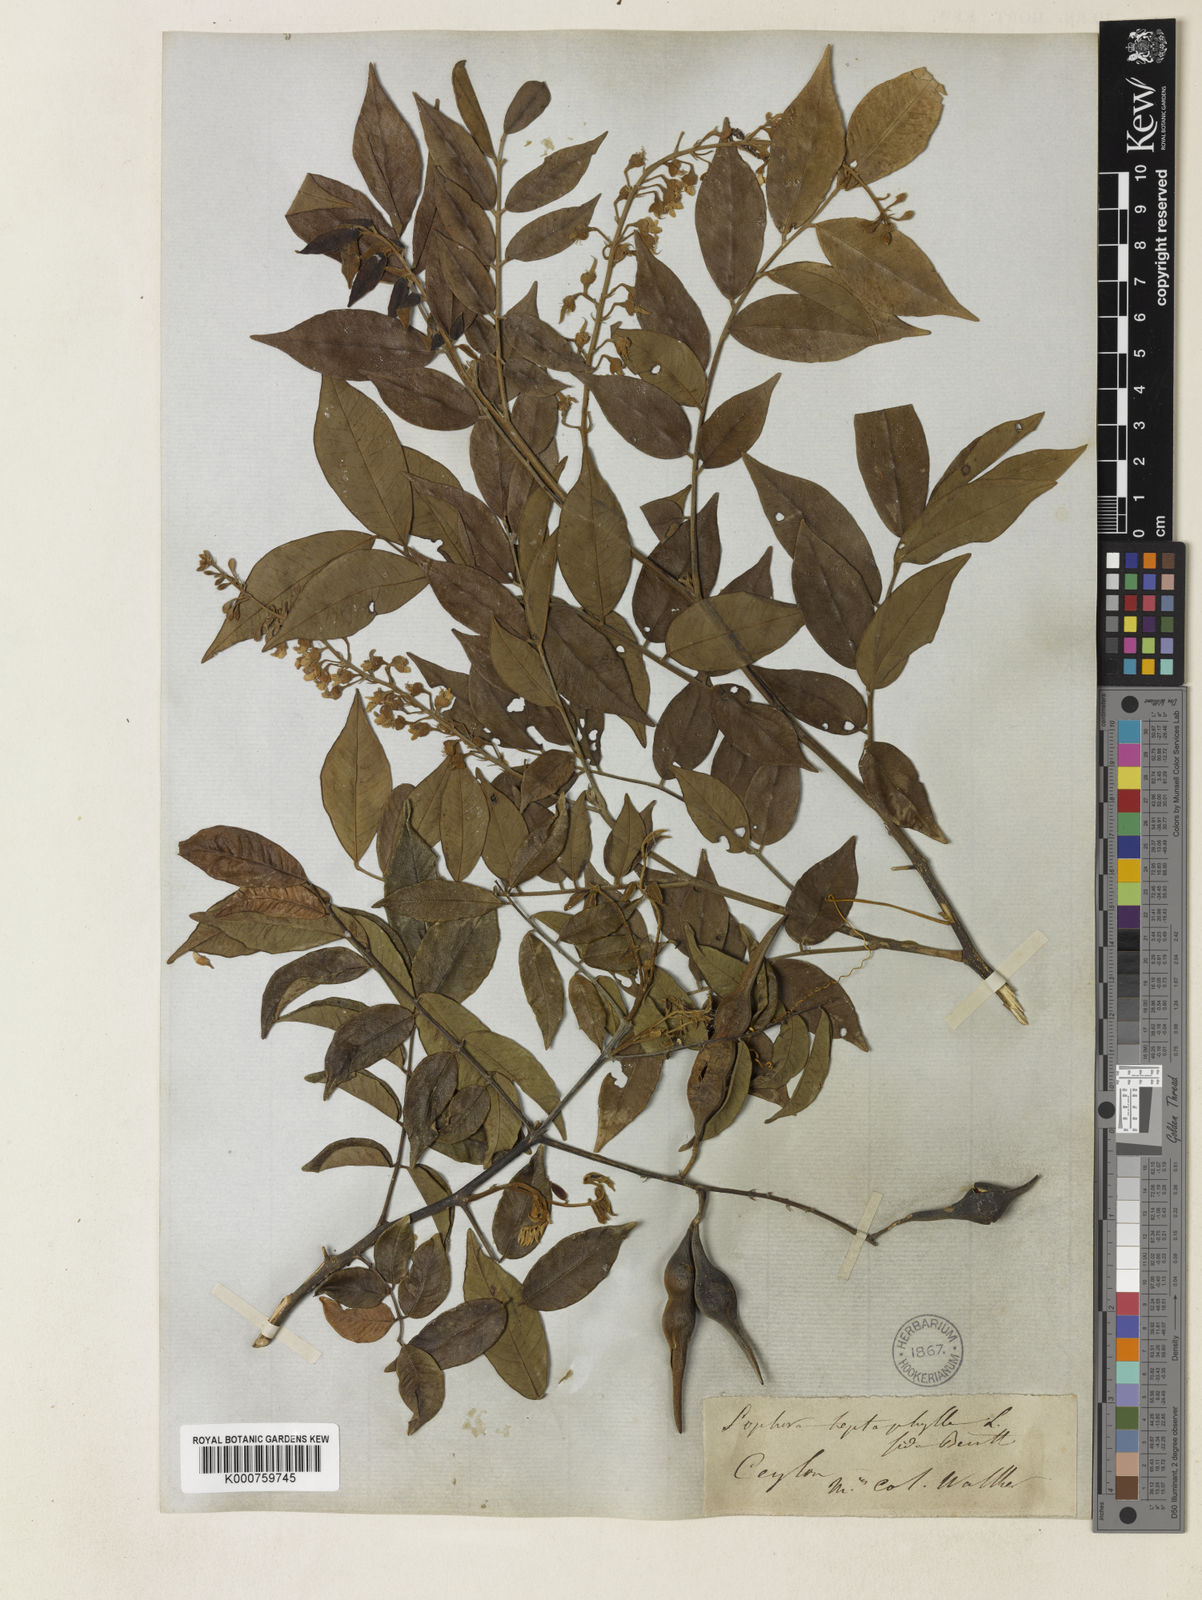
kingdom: Plantae
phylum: Tracheophyta
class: Magnoliopsida
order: Fabales
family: Fabaceae
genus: Sophora
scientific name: Sophora zeylanica
